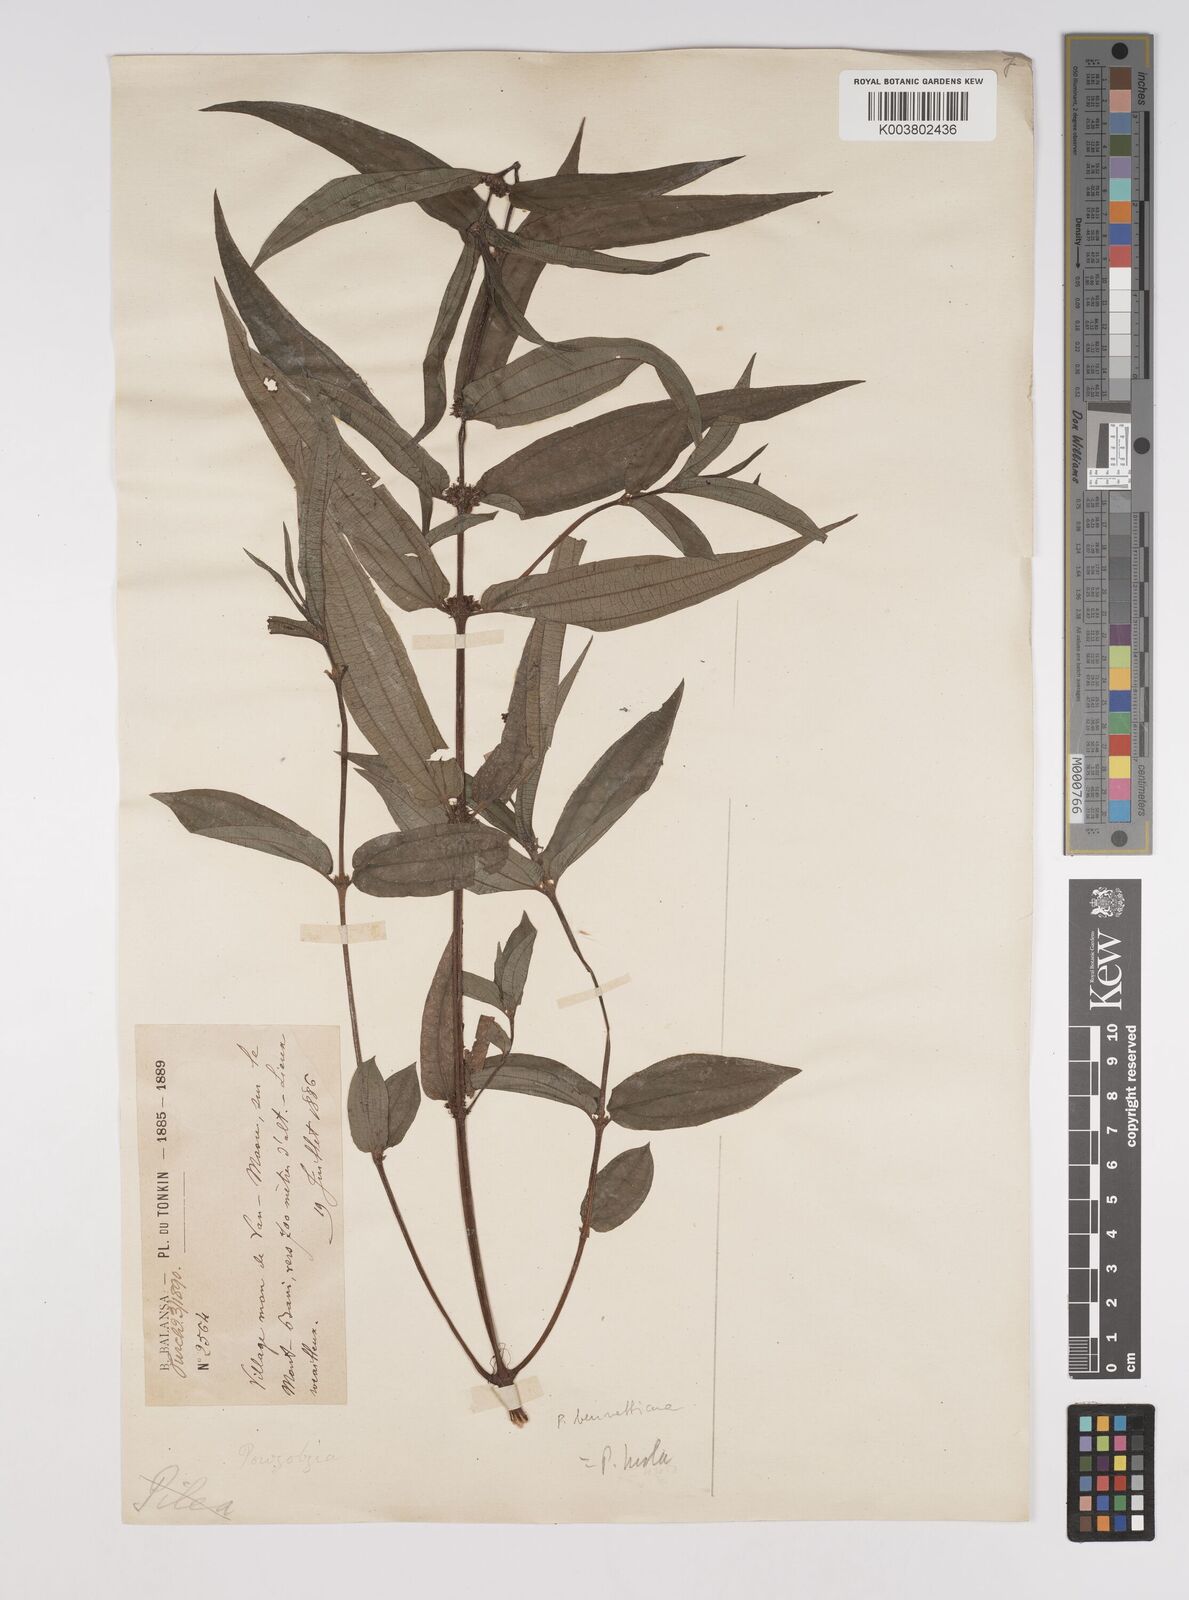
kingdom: Plantae
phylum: Tracheophyta
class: Magnoliopsida
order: Rosales
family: Urticaceae
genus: Gonostegia
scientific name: Gonostegia triandra
